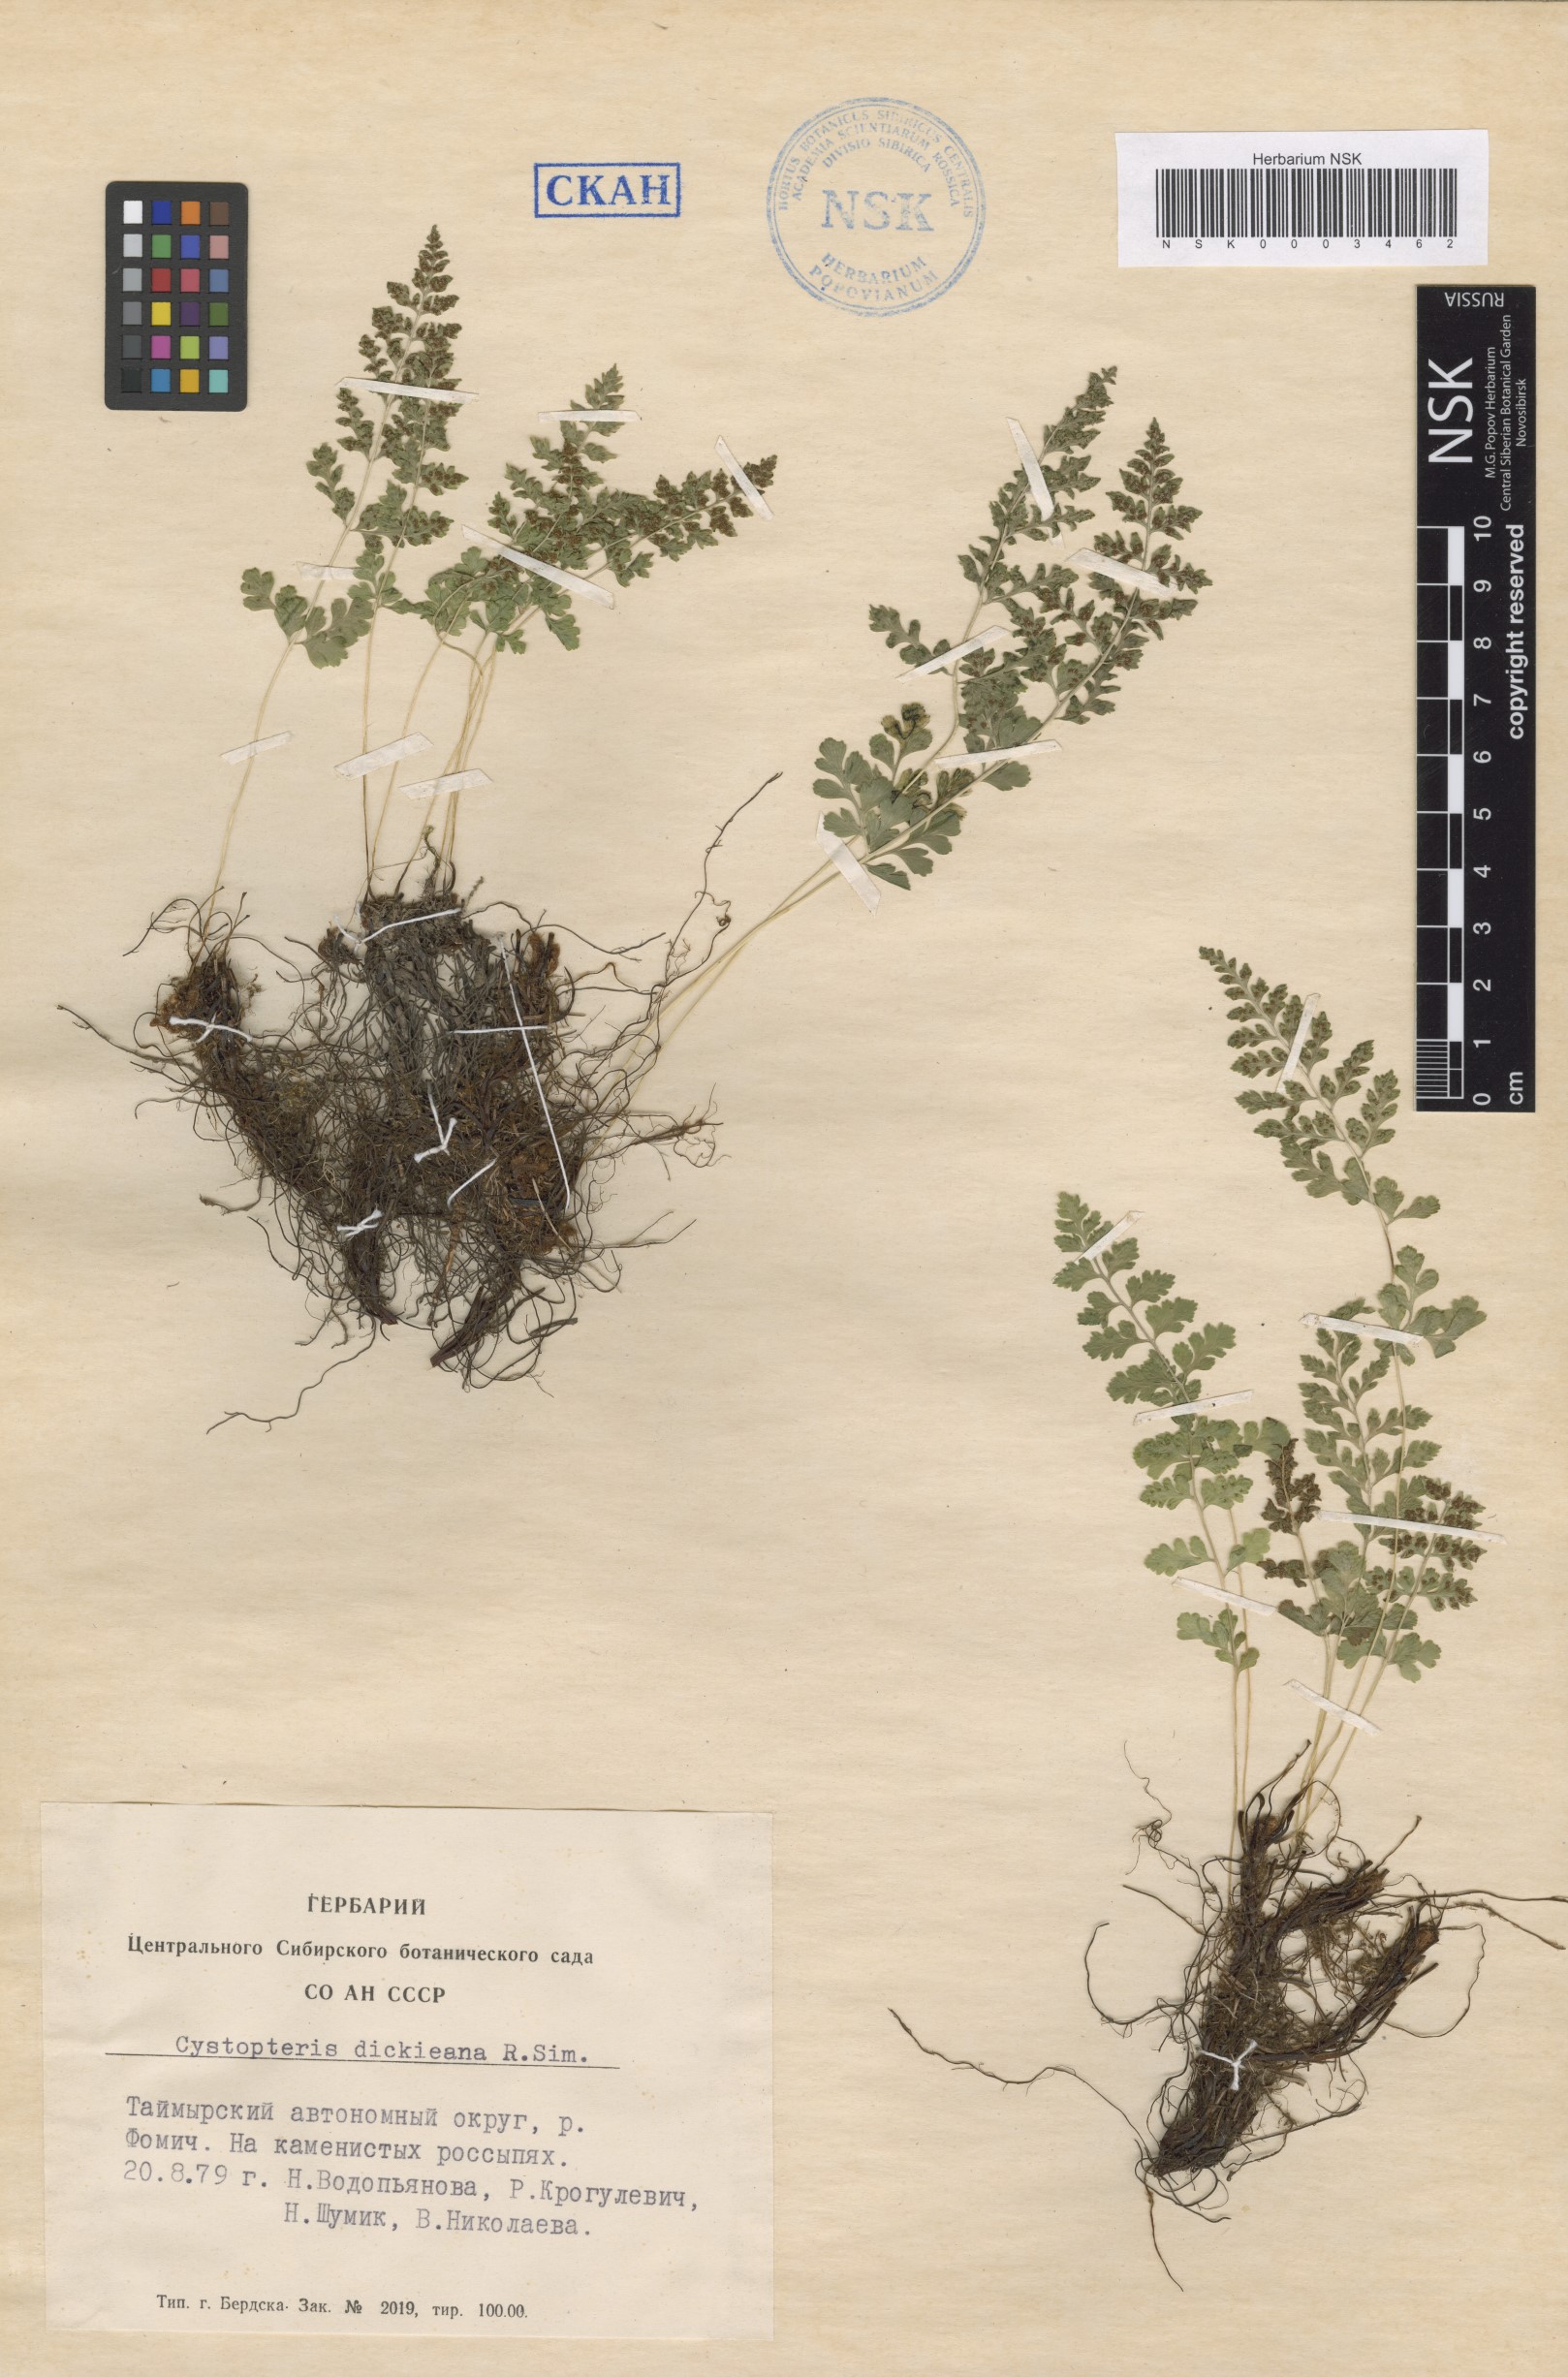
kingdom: Plantae
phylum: Tracheophyta
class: Polypodiopsida
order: Polypodiales
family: Cystopteridaceae
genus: Cystopteris
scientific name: Cystopteris dickieana
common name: Dickie's bladder-fern
